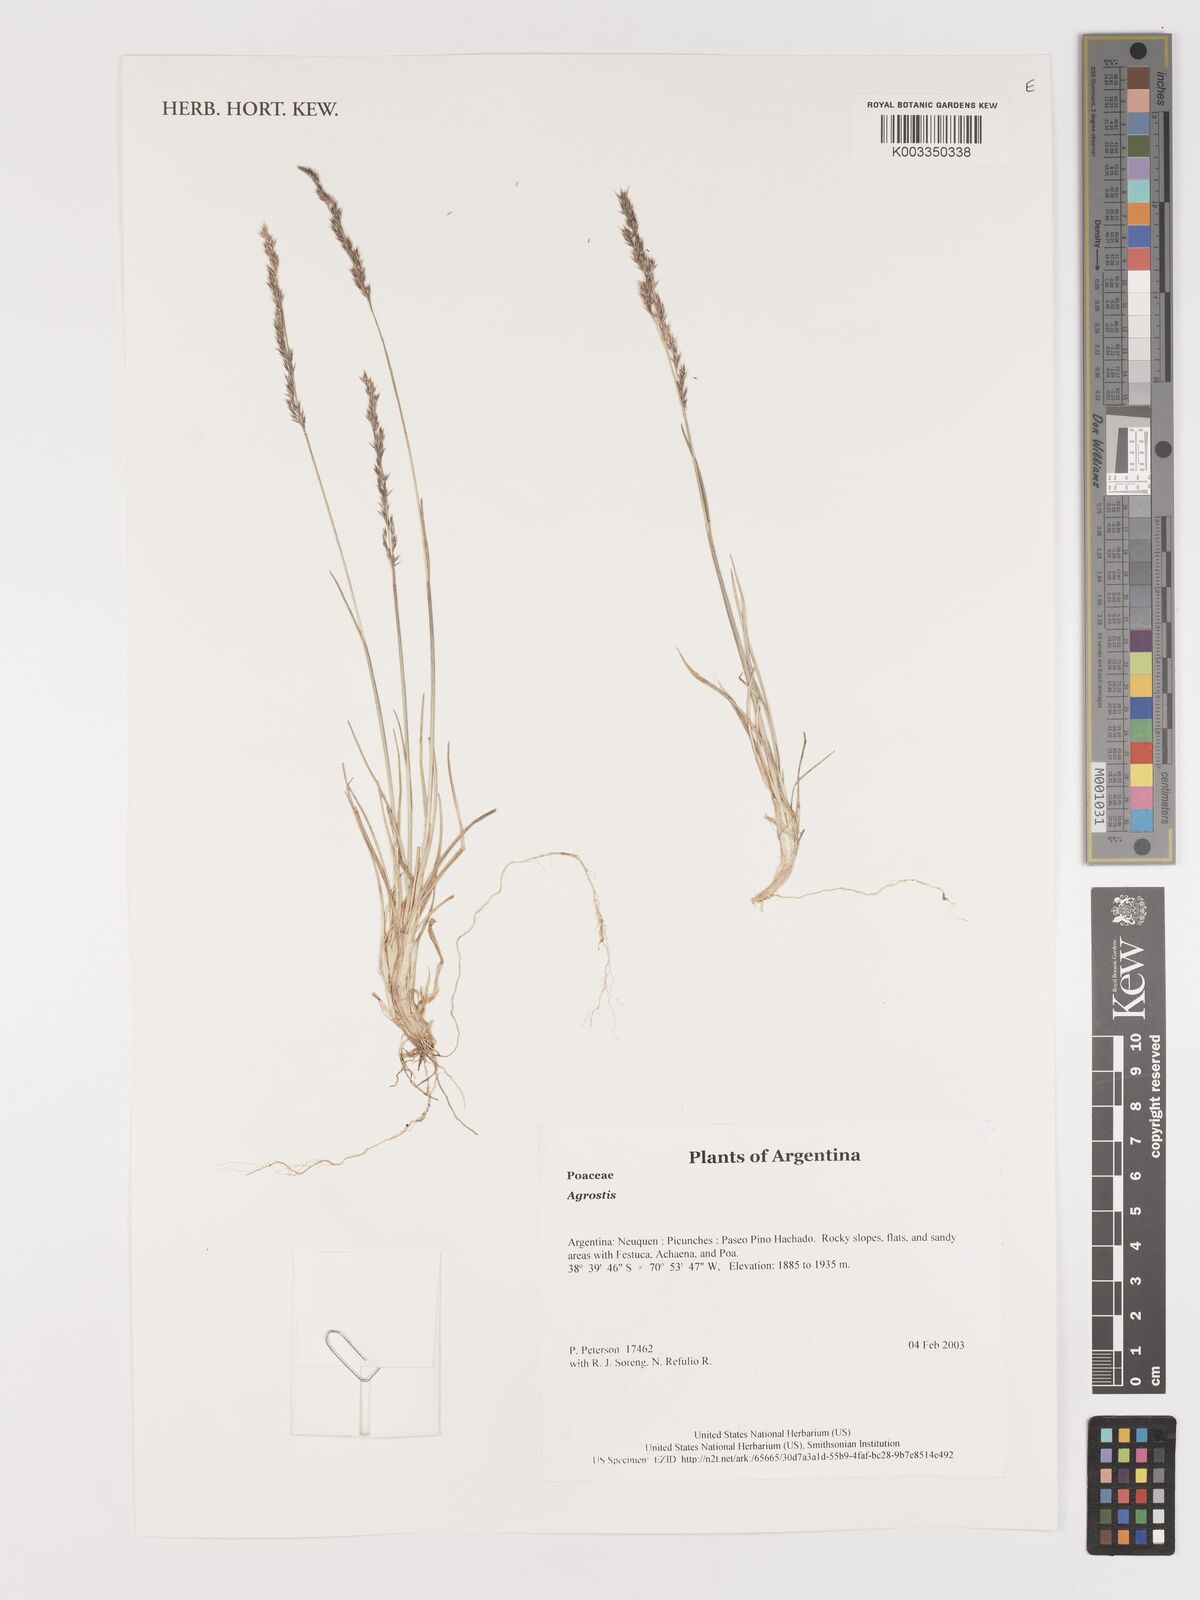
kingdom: Plantae
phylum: Tracheophyta
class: Liliopsida
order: Poales
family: Poaceae
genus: Agrostis
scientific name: Agrostis
